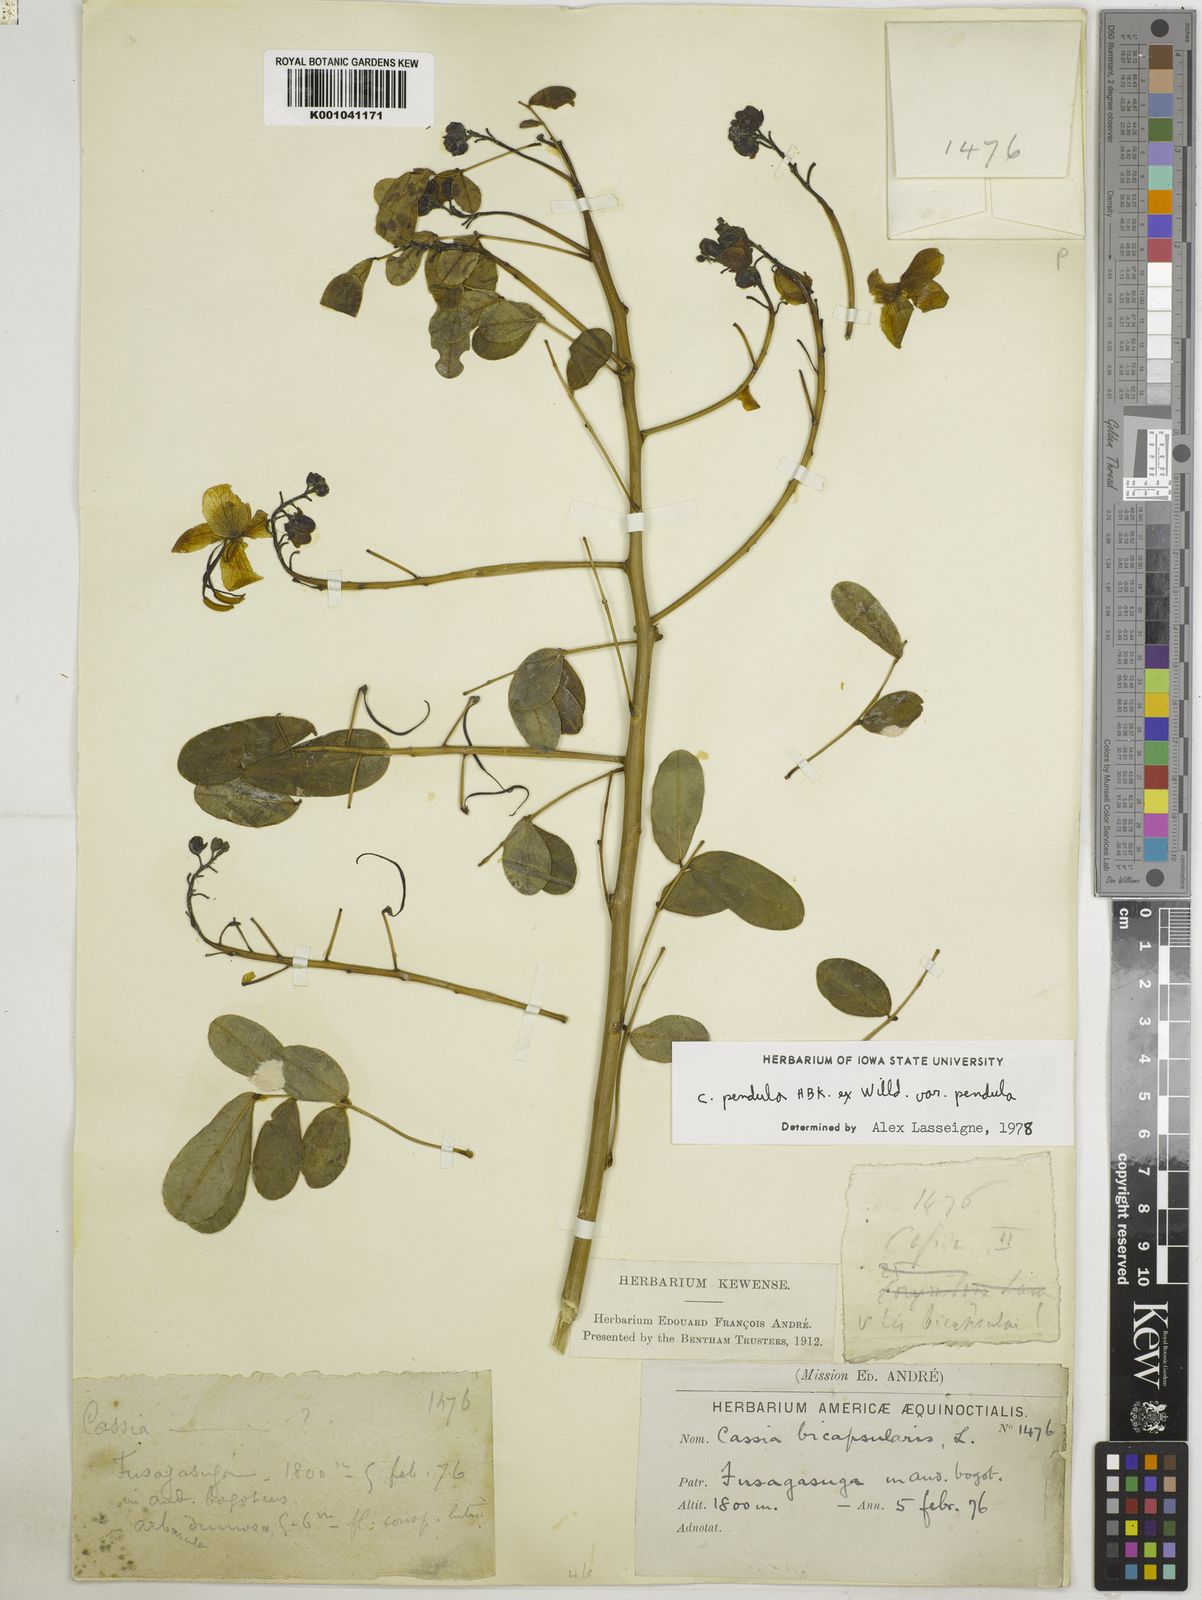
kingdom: Plantae
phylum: Tracheophyta
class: Magnoliopsida
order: Fabales
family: Fabaceae
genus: Senna
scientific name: Senna pendula
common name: Easter cassia
